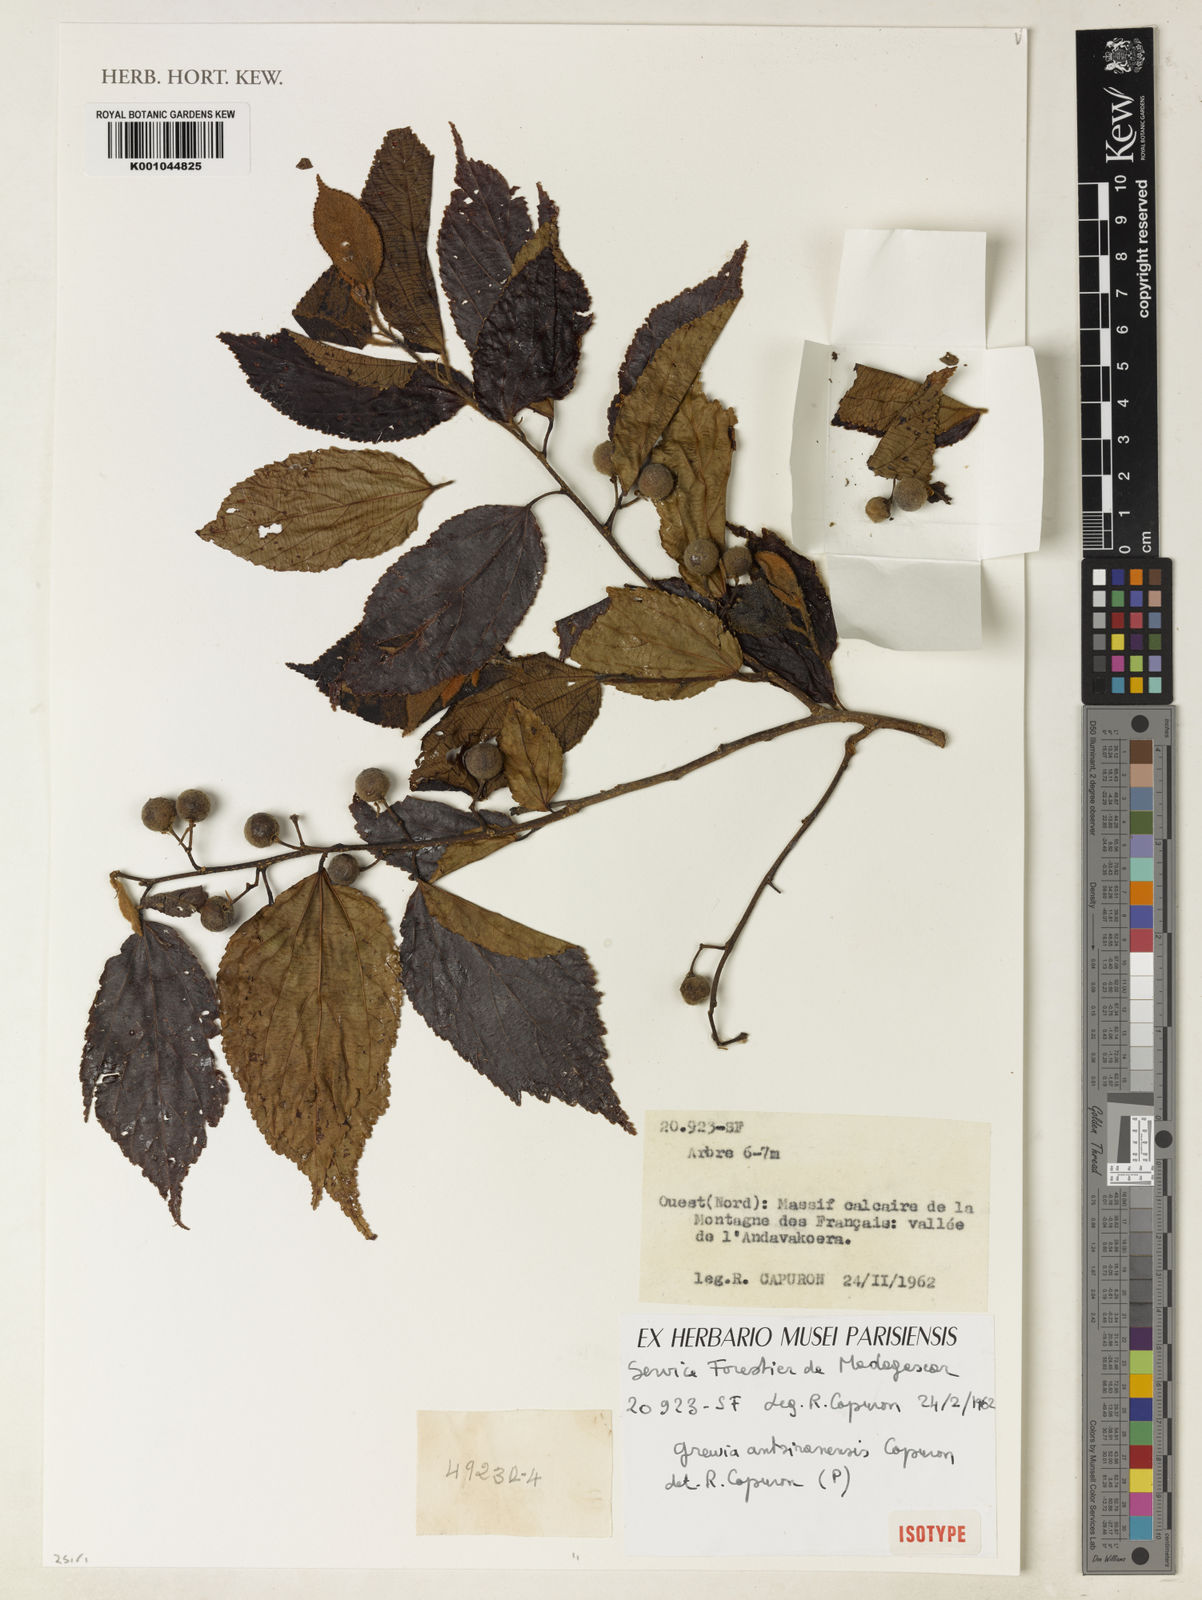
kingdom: Plantae
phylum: Tracheophyta
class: Magnoliopsida
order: Malvales
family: Malvaceae
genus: Grewia
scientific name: Grewia antsiranensis
